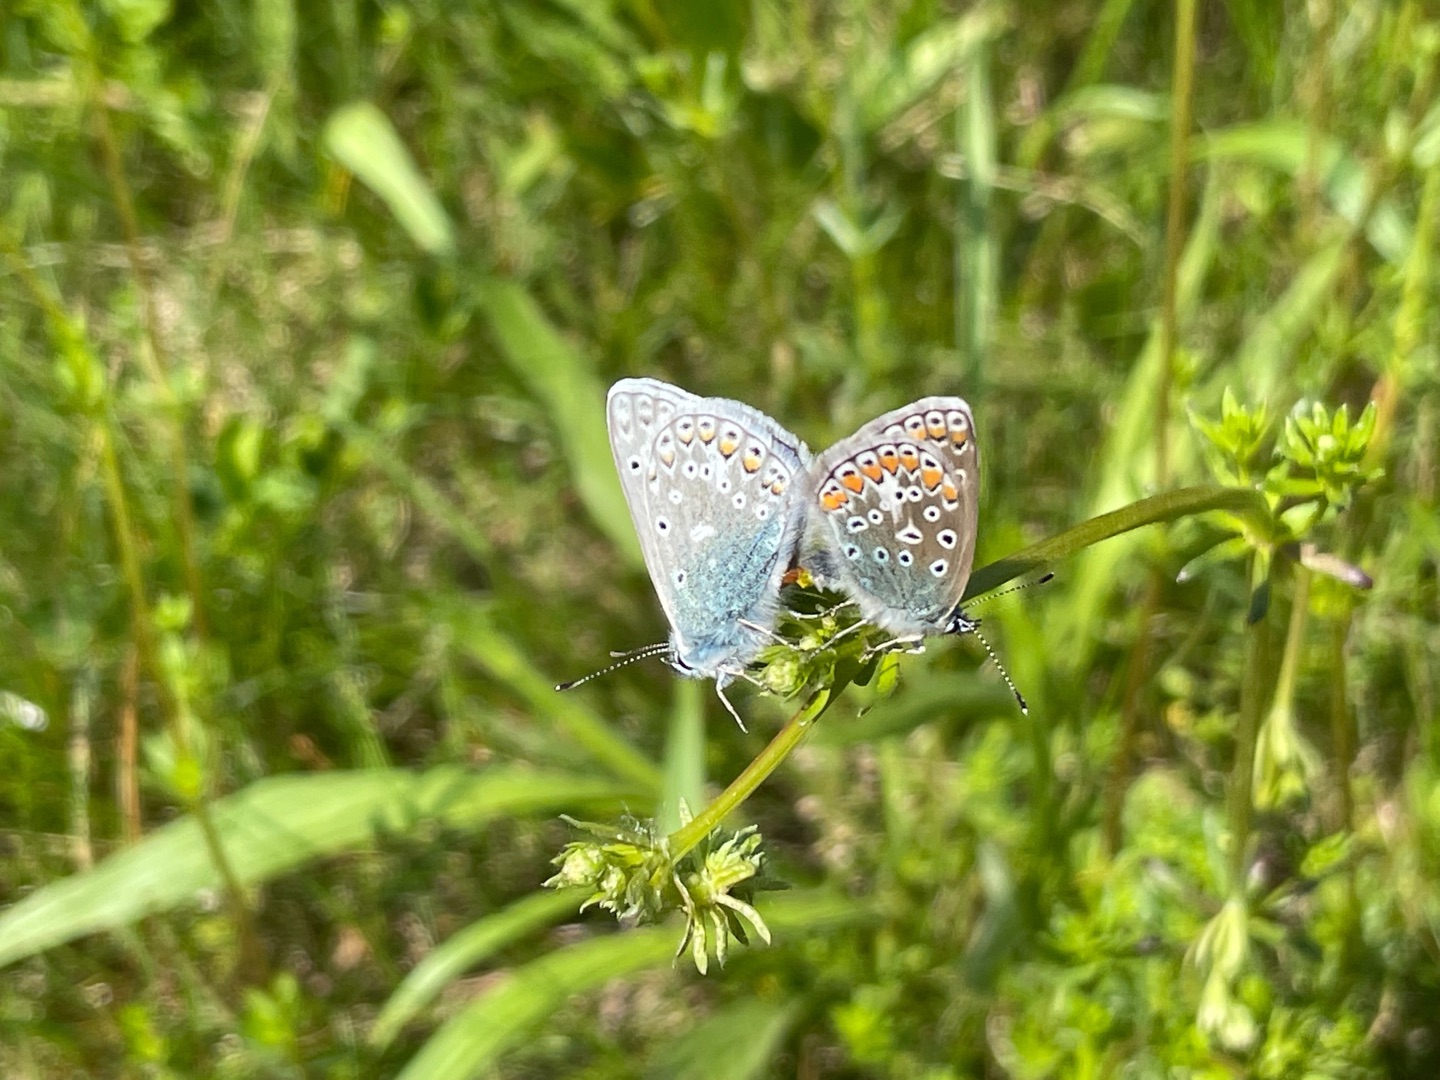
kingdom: Animalia
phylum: Arthropoda
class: Insecta
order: Lepidoptera
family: Lycaenidae
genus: Polyommatus
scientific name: Polyommatus icarus
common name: Almindelig blåfugl
